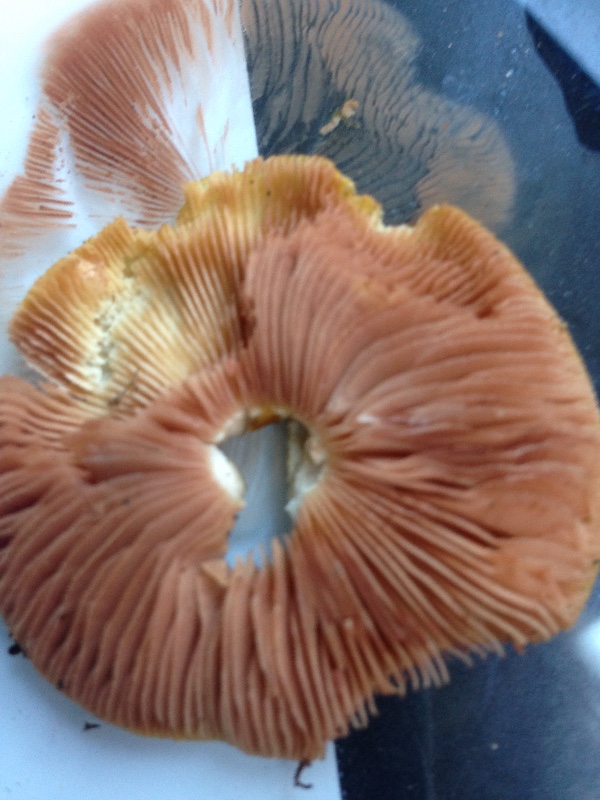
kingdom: Fungi
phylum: Basidiomycota
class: Agaricomycetes
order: Agaricales
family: Pluteaceae
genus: Pluteus
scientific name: Pluteus leoninus
